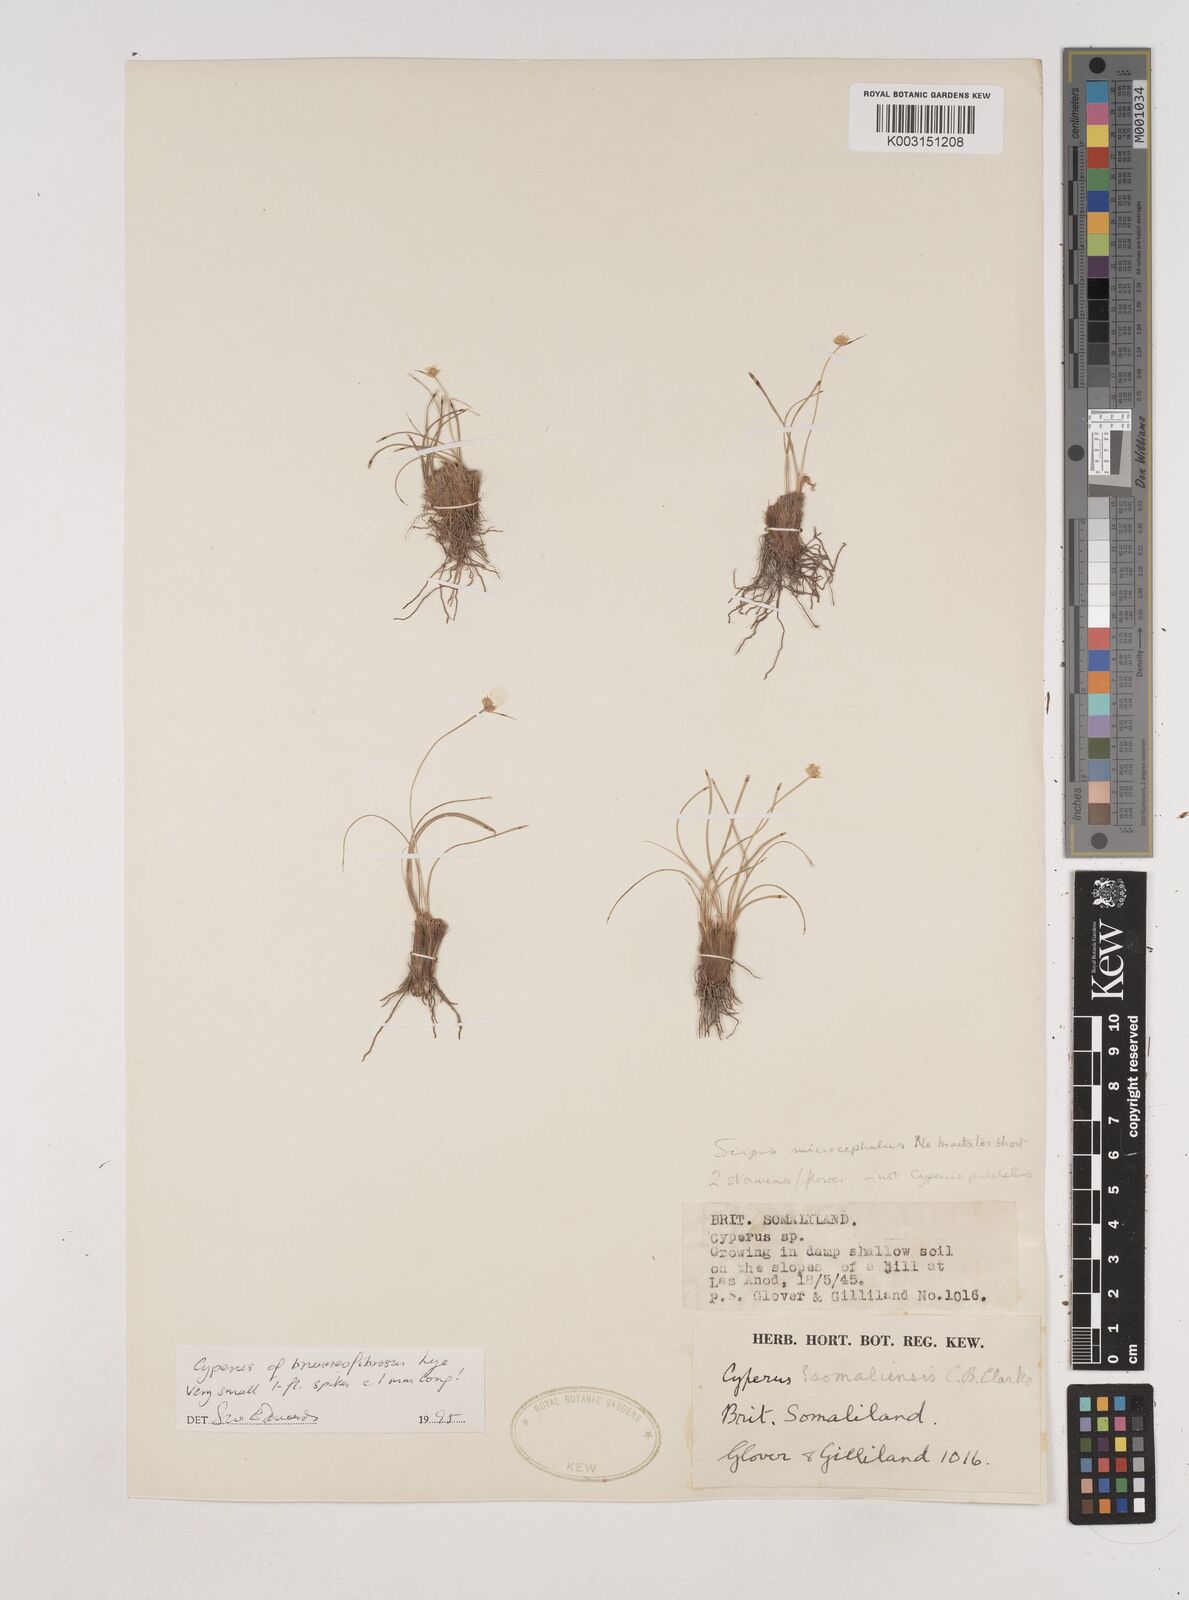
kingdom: Plantae
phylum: Tracheophyta
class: Liliopsida
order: Poales
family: Cyperaceae
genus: Cyperus
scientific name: Cyperus brunneofibrosus
